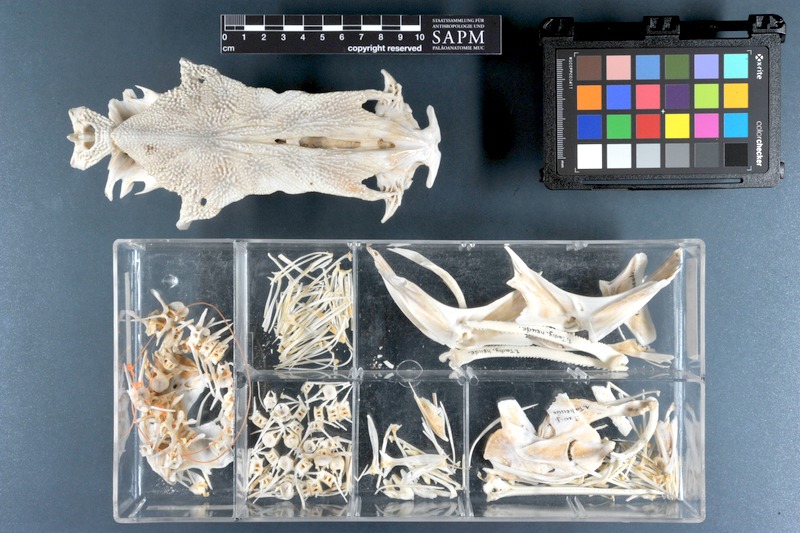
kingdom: Animalia
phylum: Chordata
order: Siluriformes
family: Ariidae
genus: Carlarius
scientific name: Carlarius heudelotii
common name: Smoothmouth sea catfish
